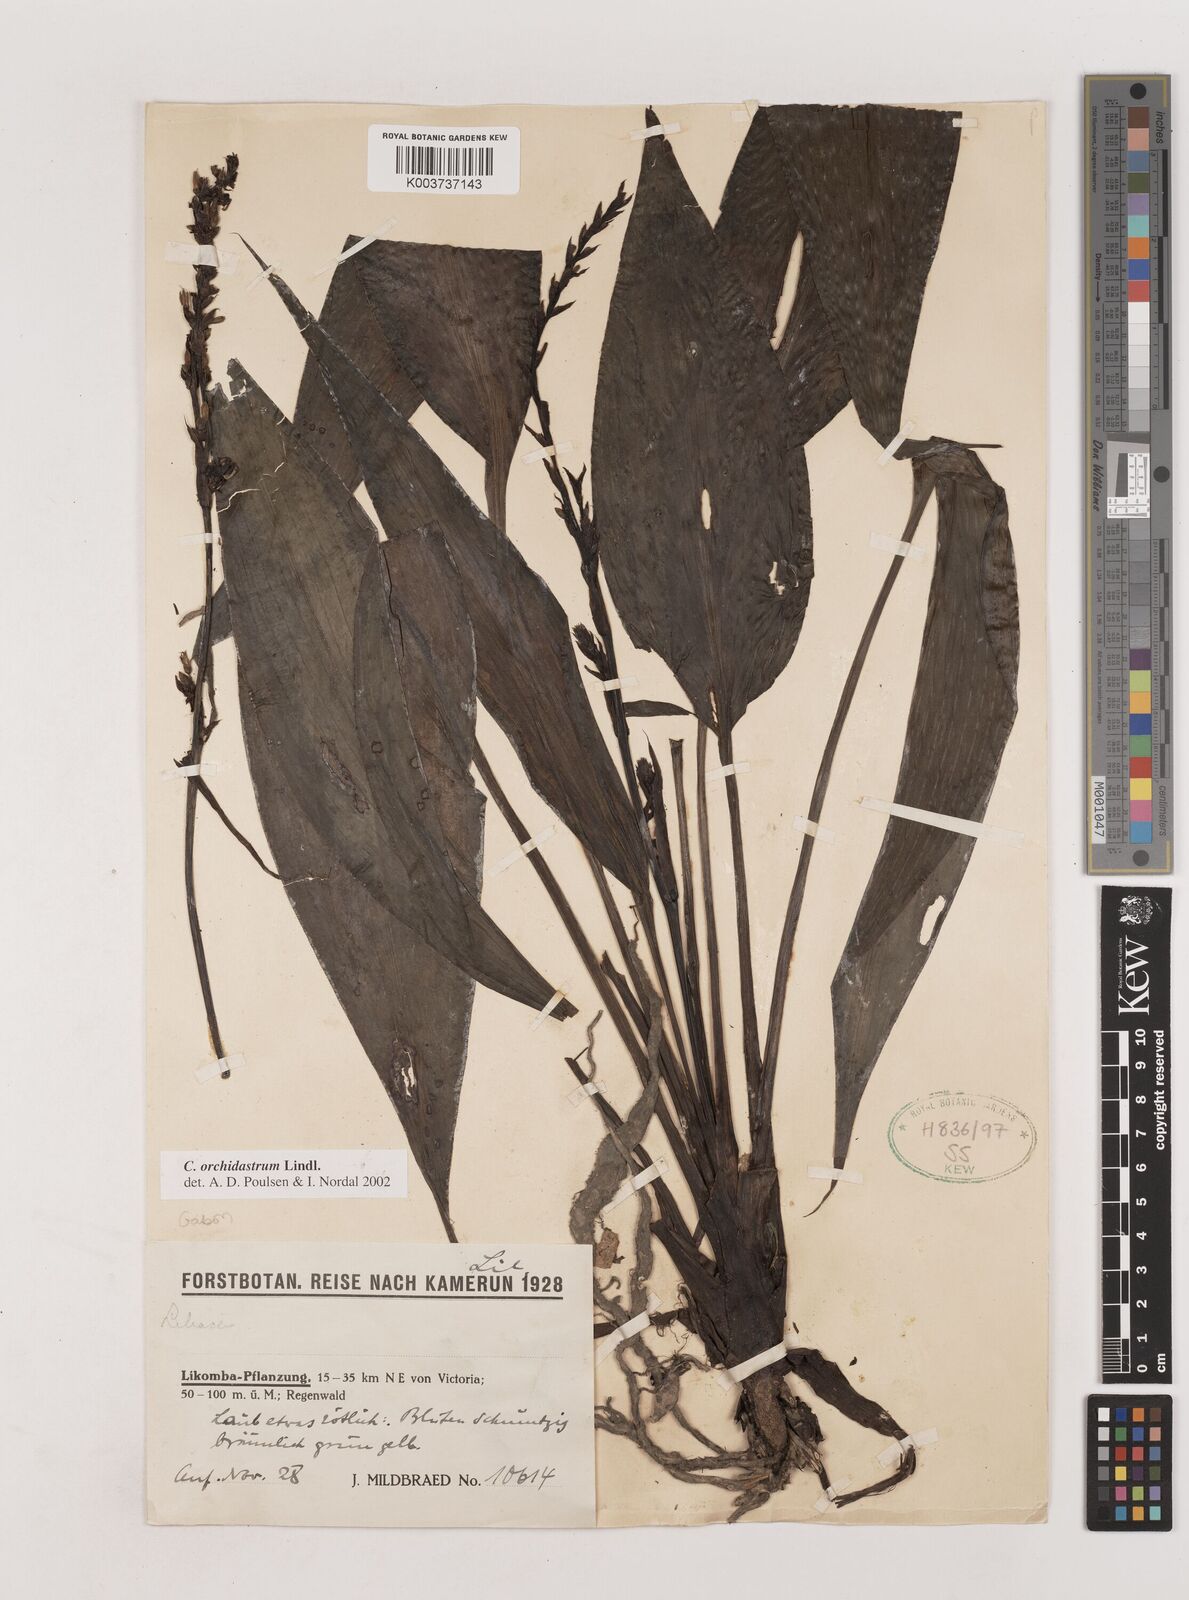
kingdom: Plantae
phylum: Tracheophyta
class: Liliopsida
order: Asparagales
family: Asparagaceae
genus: Chlorophytum
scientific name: Chlorophytum orchidastrum
